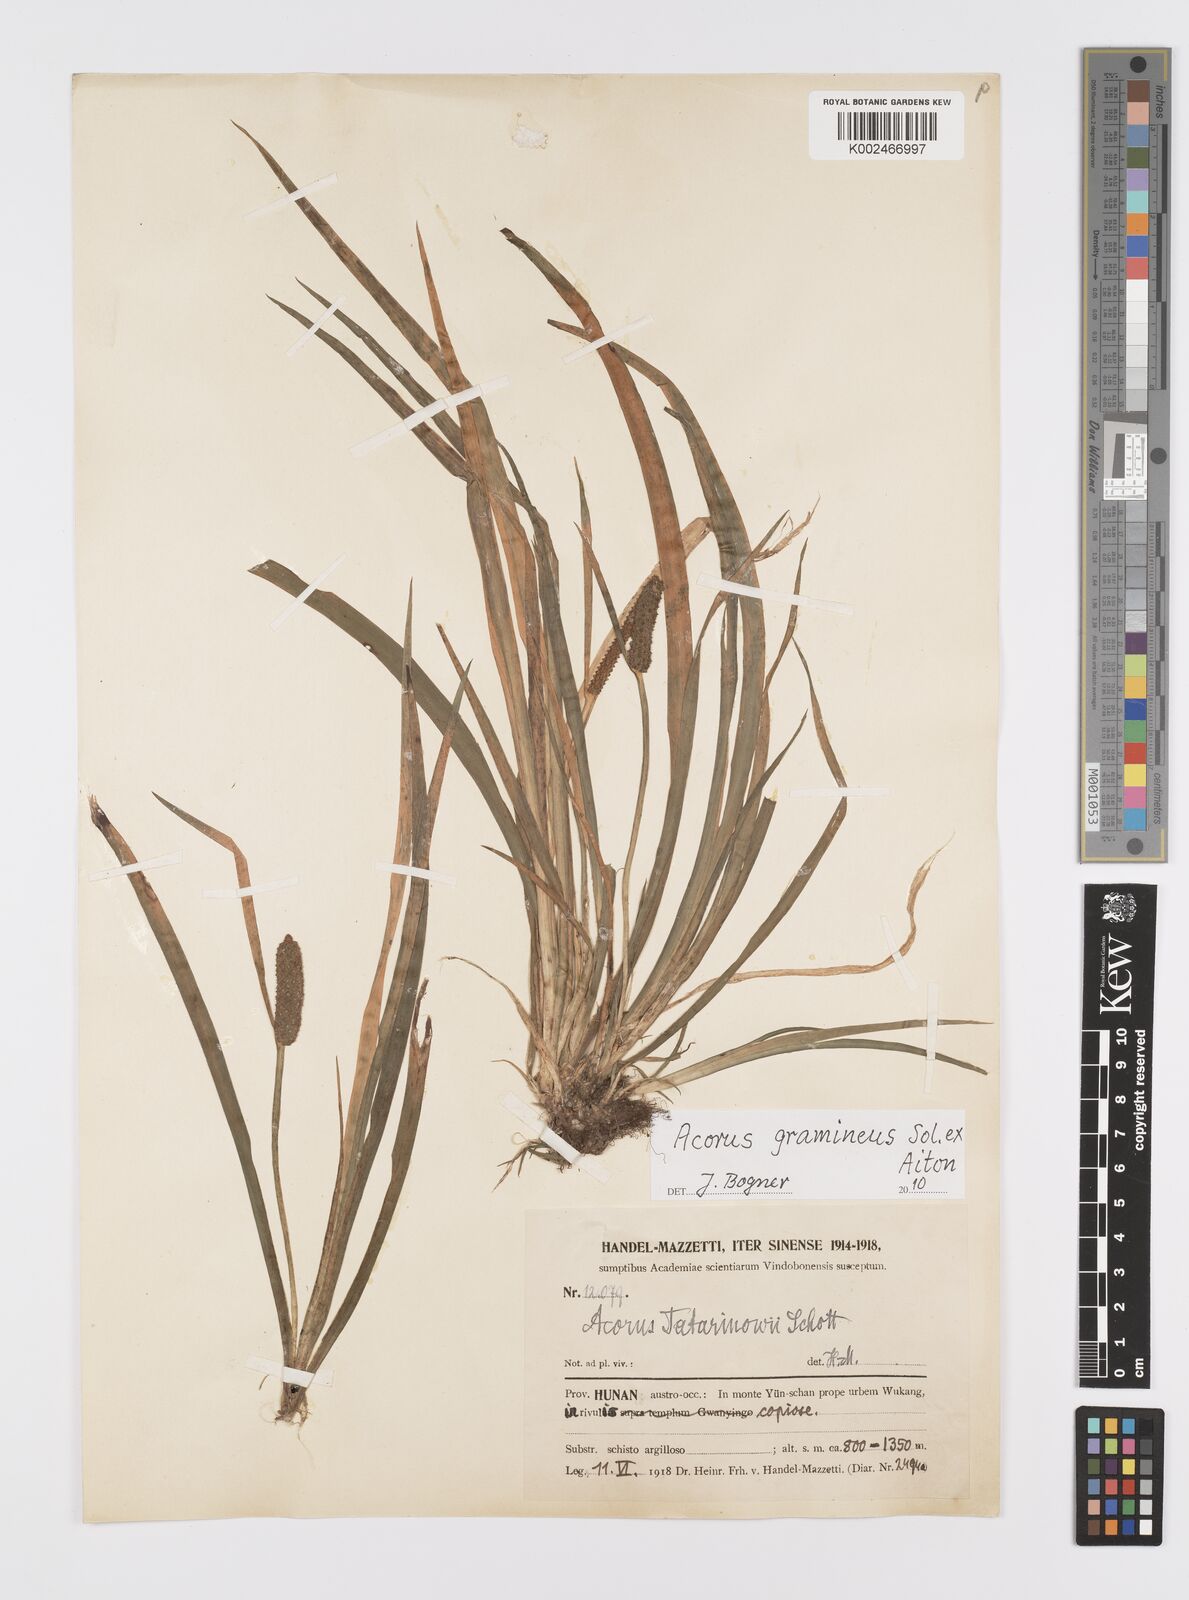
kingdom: Plantae
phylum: Tracheophyta
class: Liliopsida
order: Acorales
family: Acoraceae
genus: Acorus
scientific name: Acorus calamus
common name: Sweet-flag
